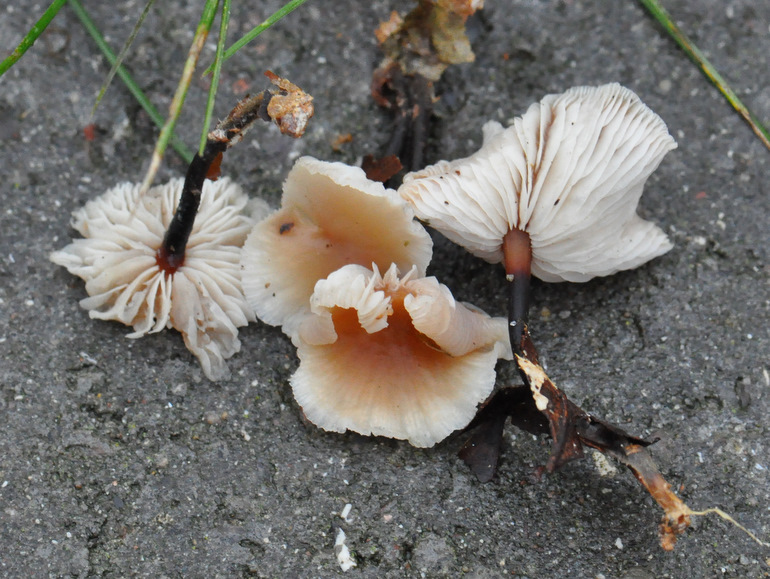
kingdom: Fungi
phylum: Basidiomycota
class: Agaricomycetes
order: Agaricales
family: Omphalotaceae
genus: Gymnopus
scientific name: Gymnopus brassicolens
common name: kål-fladhat
